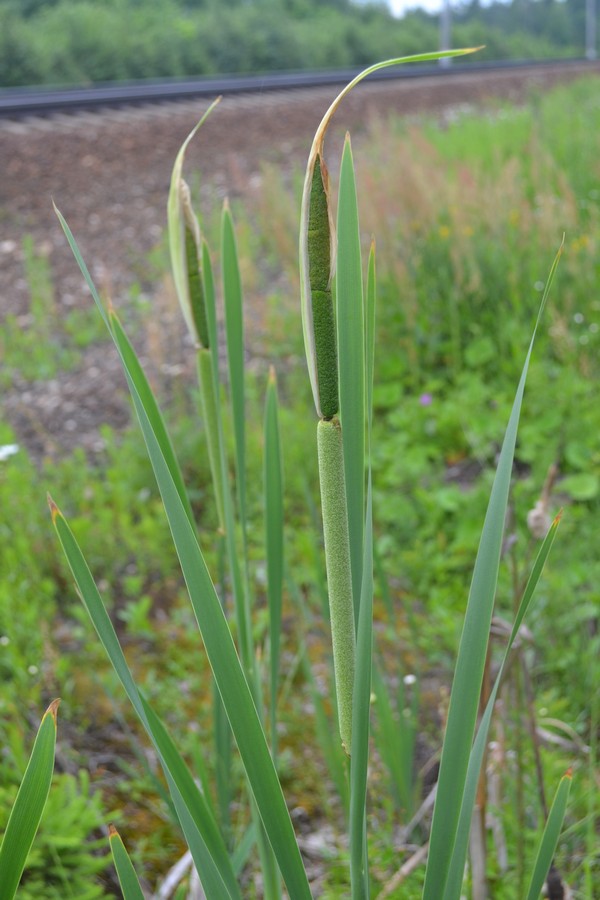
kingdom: Plantae
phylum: Tracheophyta
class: Liliopsida
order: Poales
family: Typhaceae
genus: Typha
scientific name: Typha latifolia
